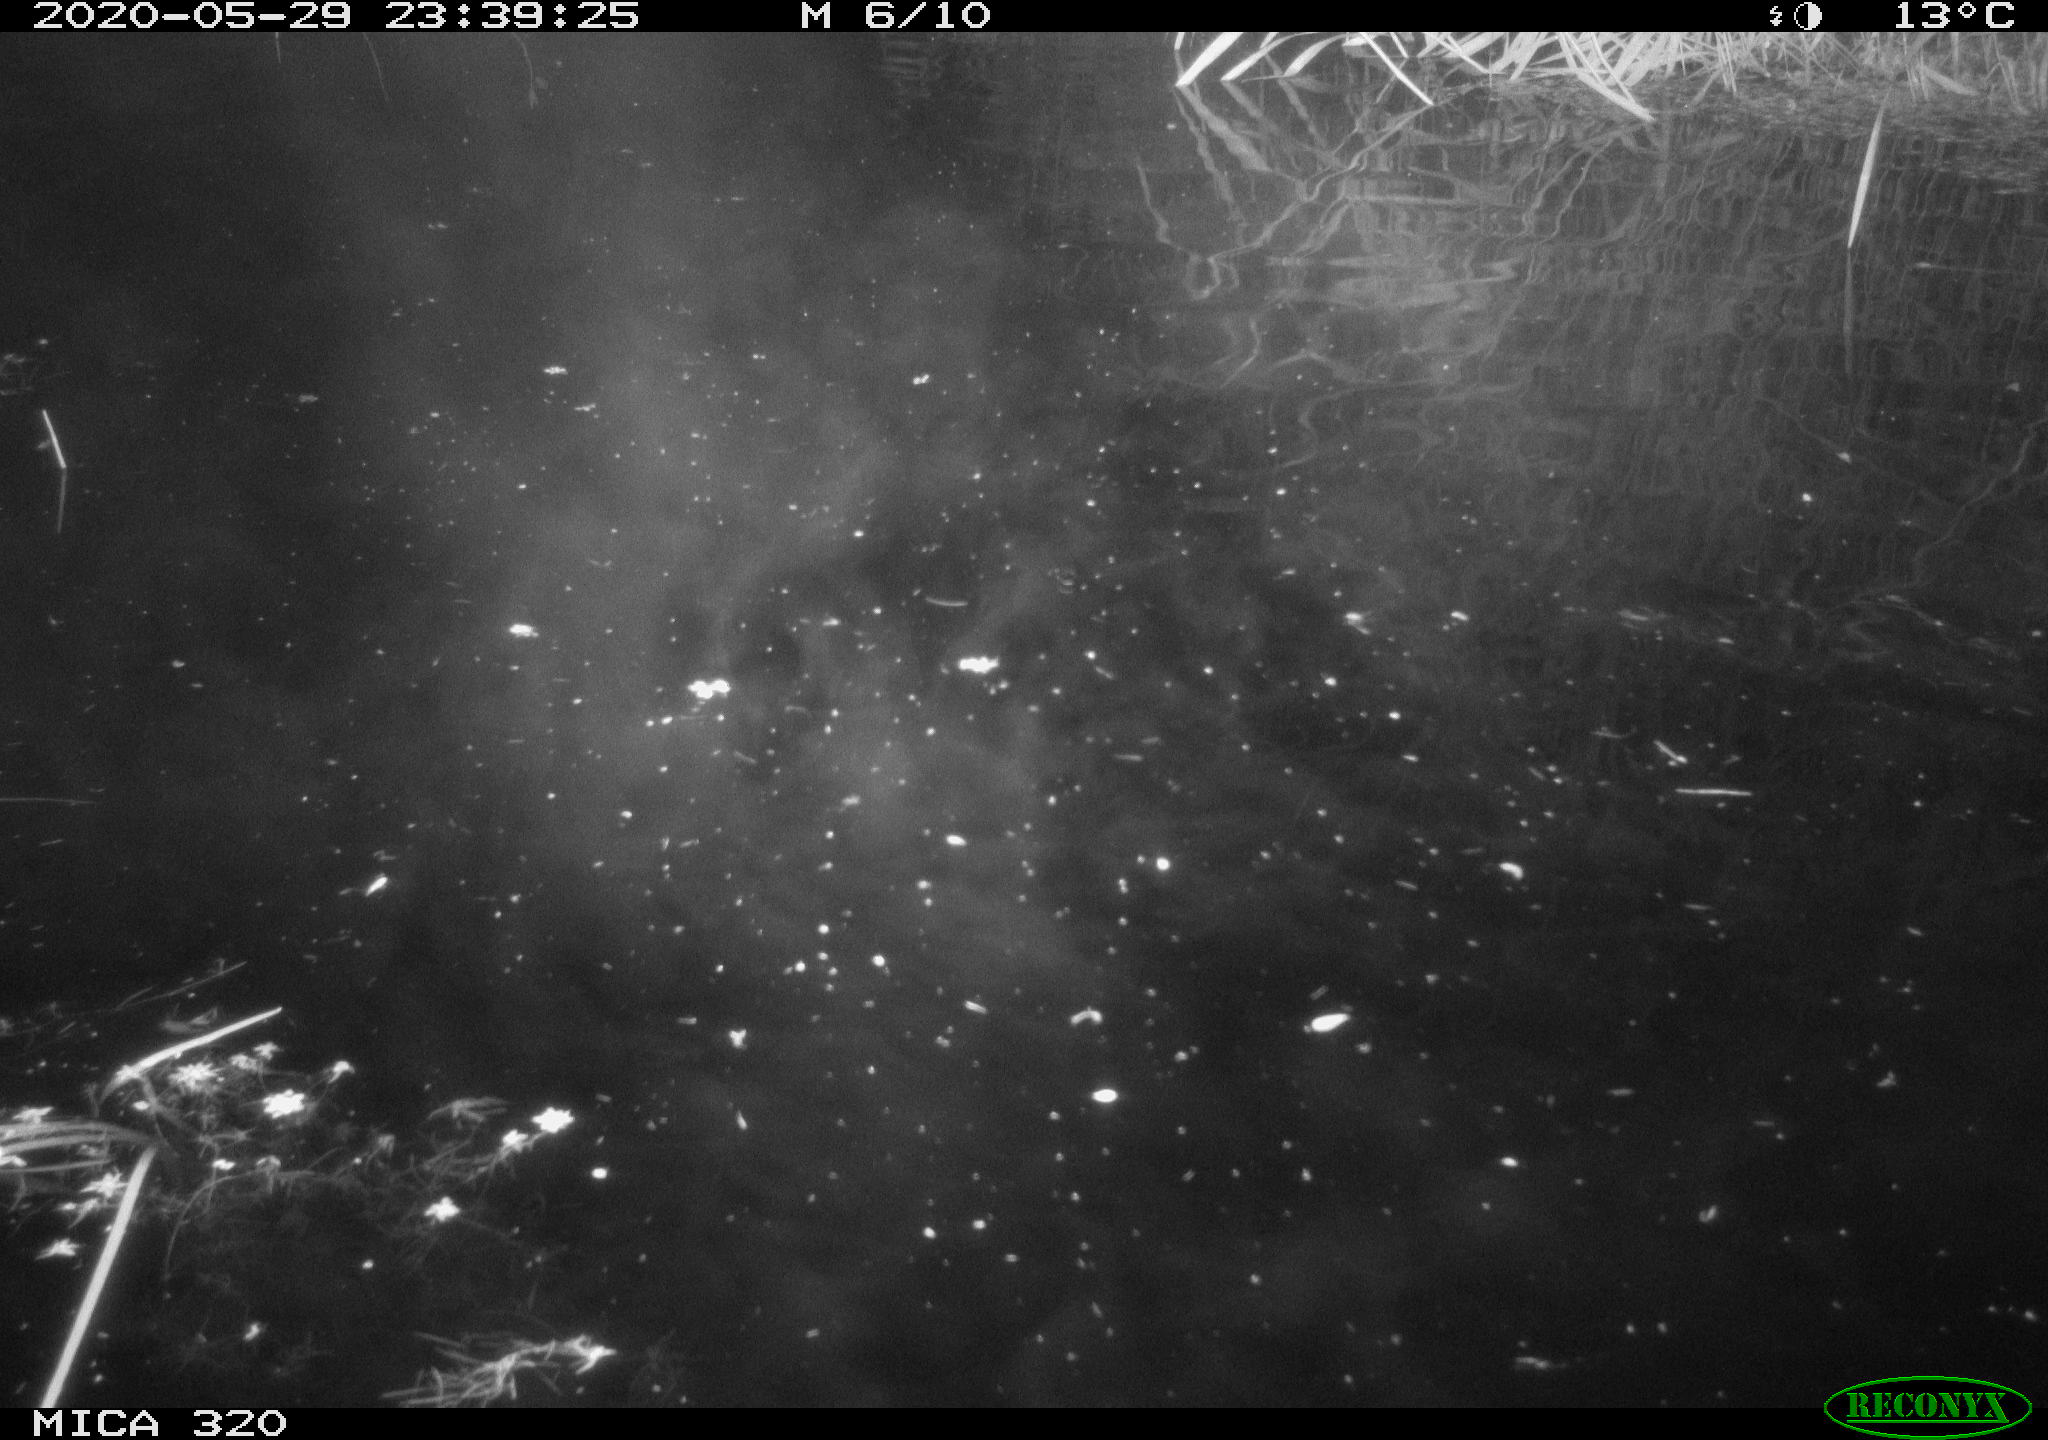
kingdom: Animalia
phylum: Chordata
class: Aves
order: Anseriformes
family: Anatidae
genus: Anas
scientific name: Anas platyrhynchos
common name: Mallard
